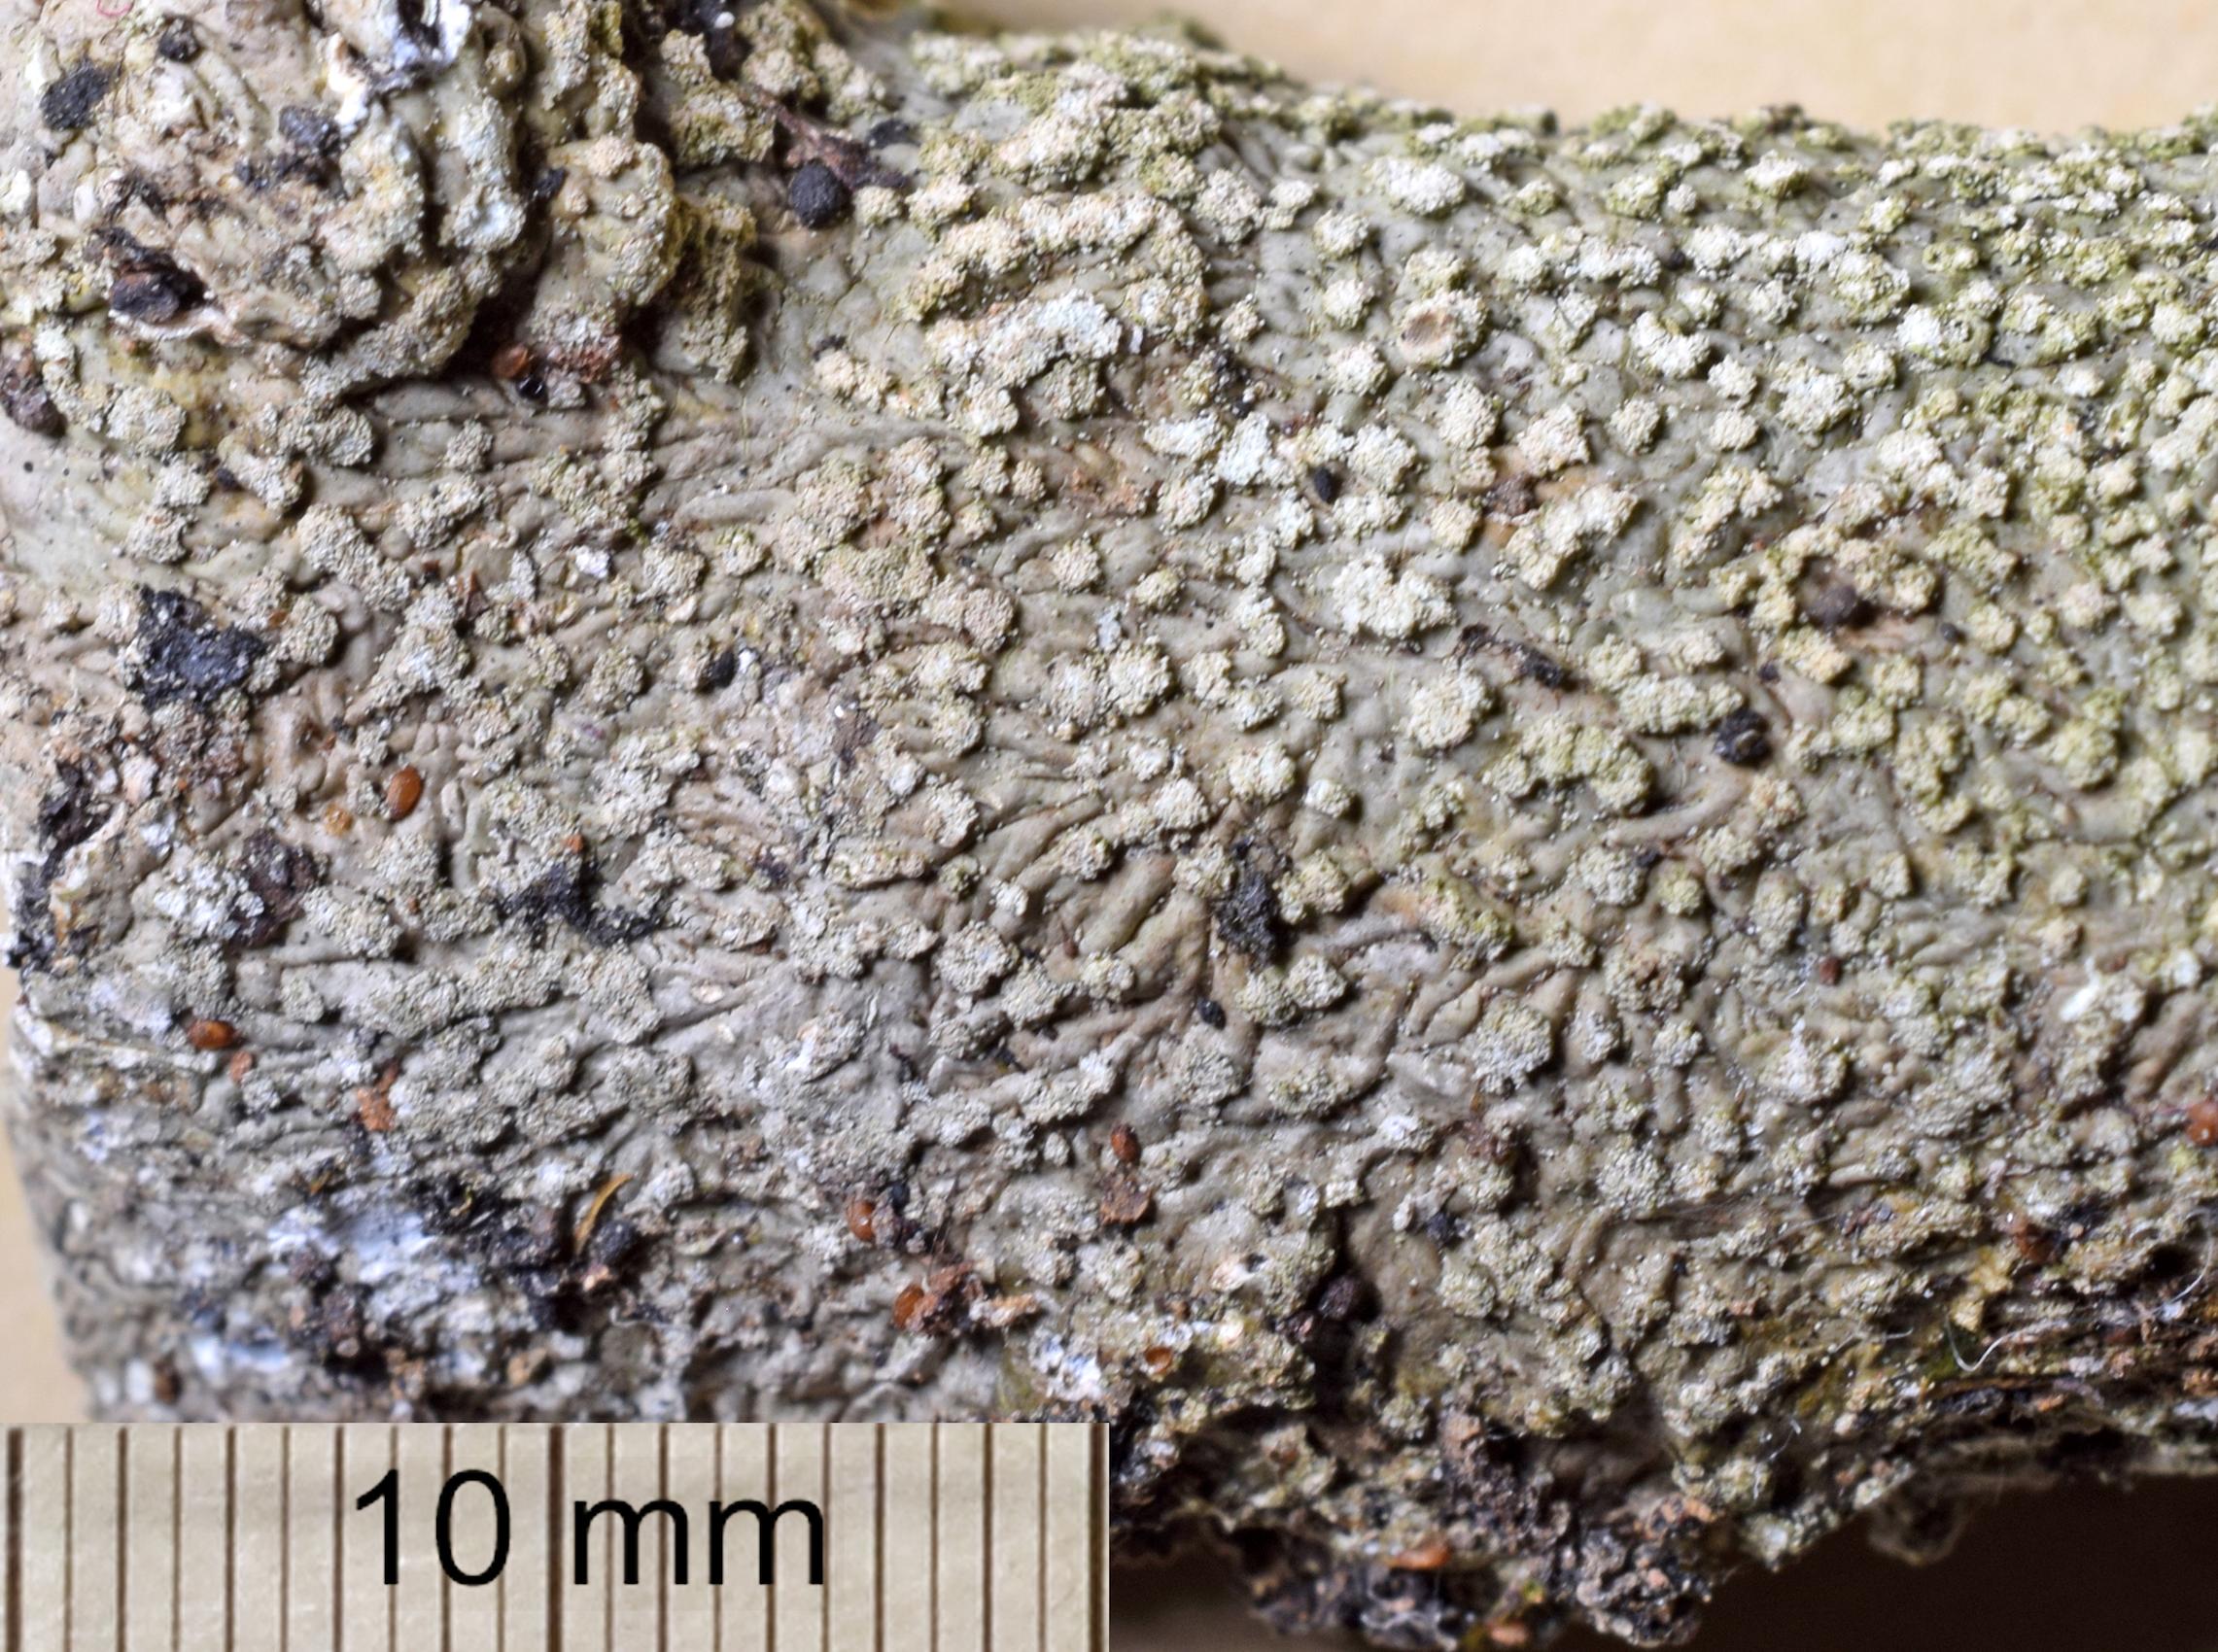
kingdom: Fungi
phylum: Ascomycota
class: Lecanoromycetes
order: Teloschistales
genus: Dirinaria
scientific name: Dirinaria
